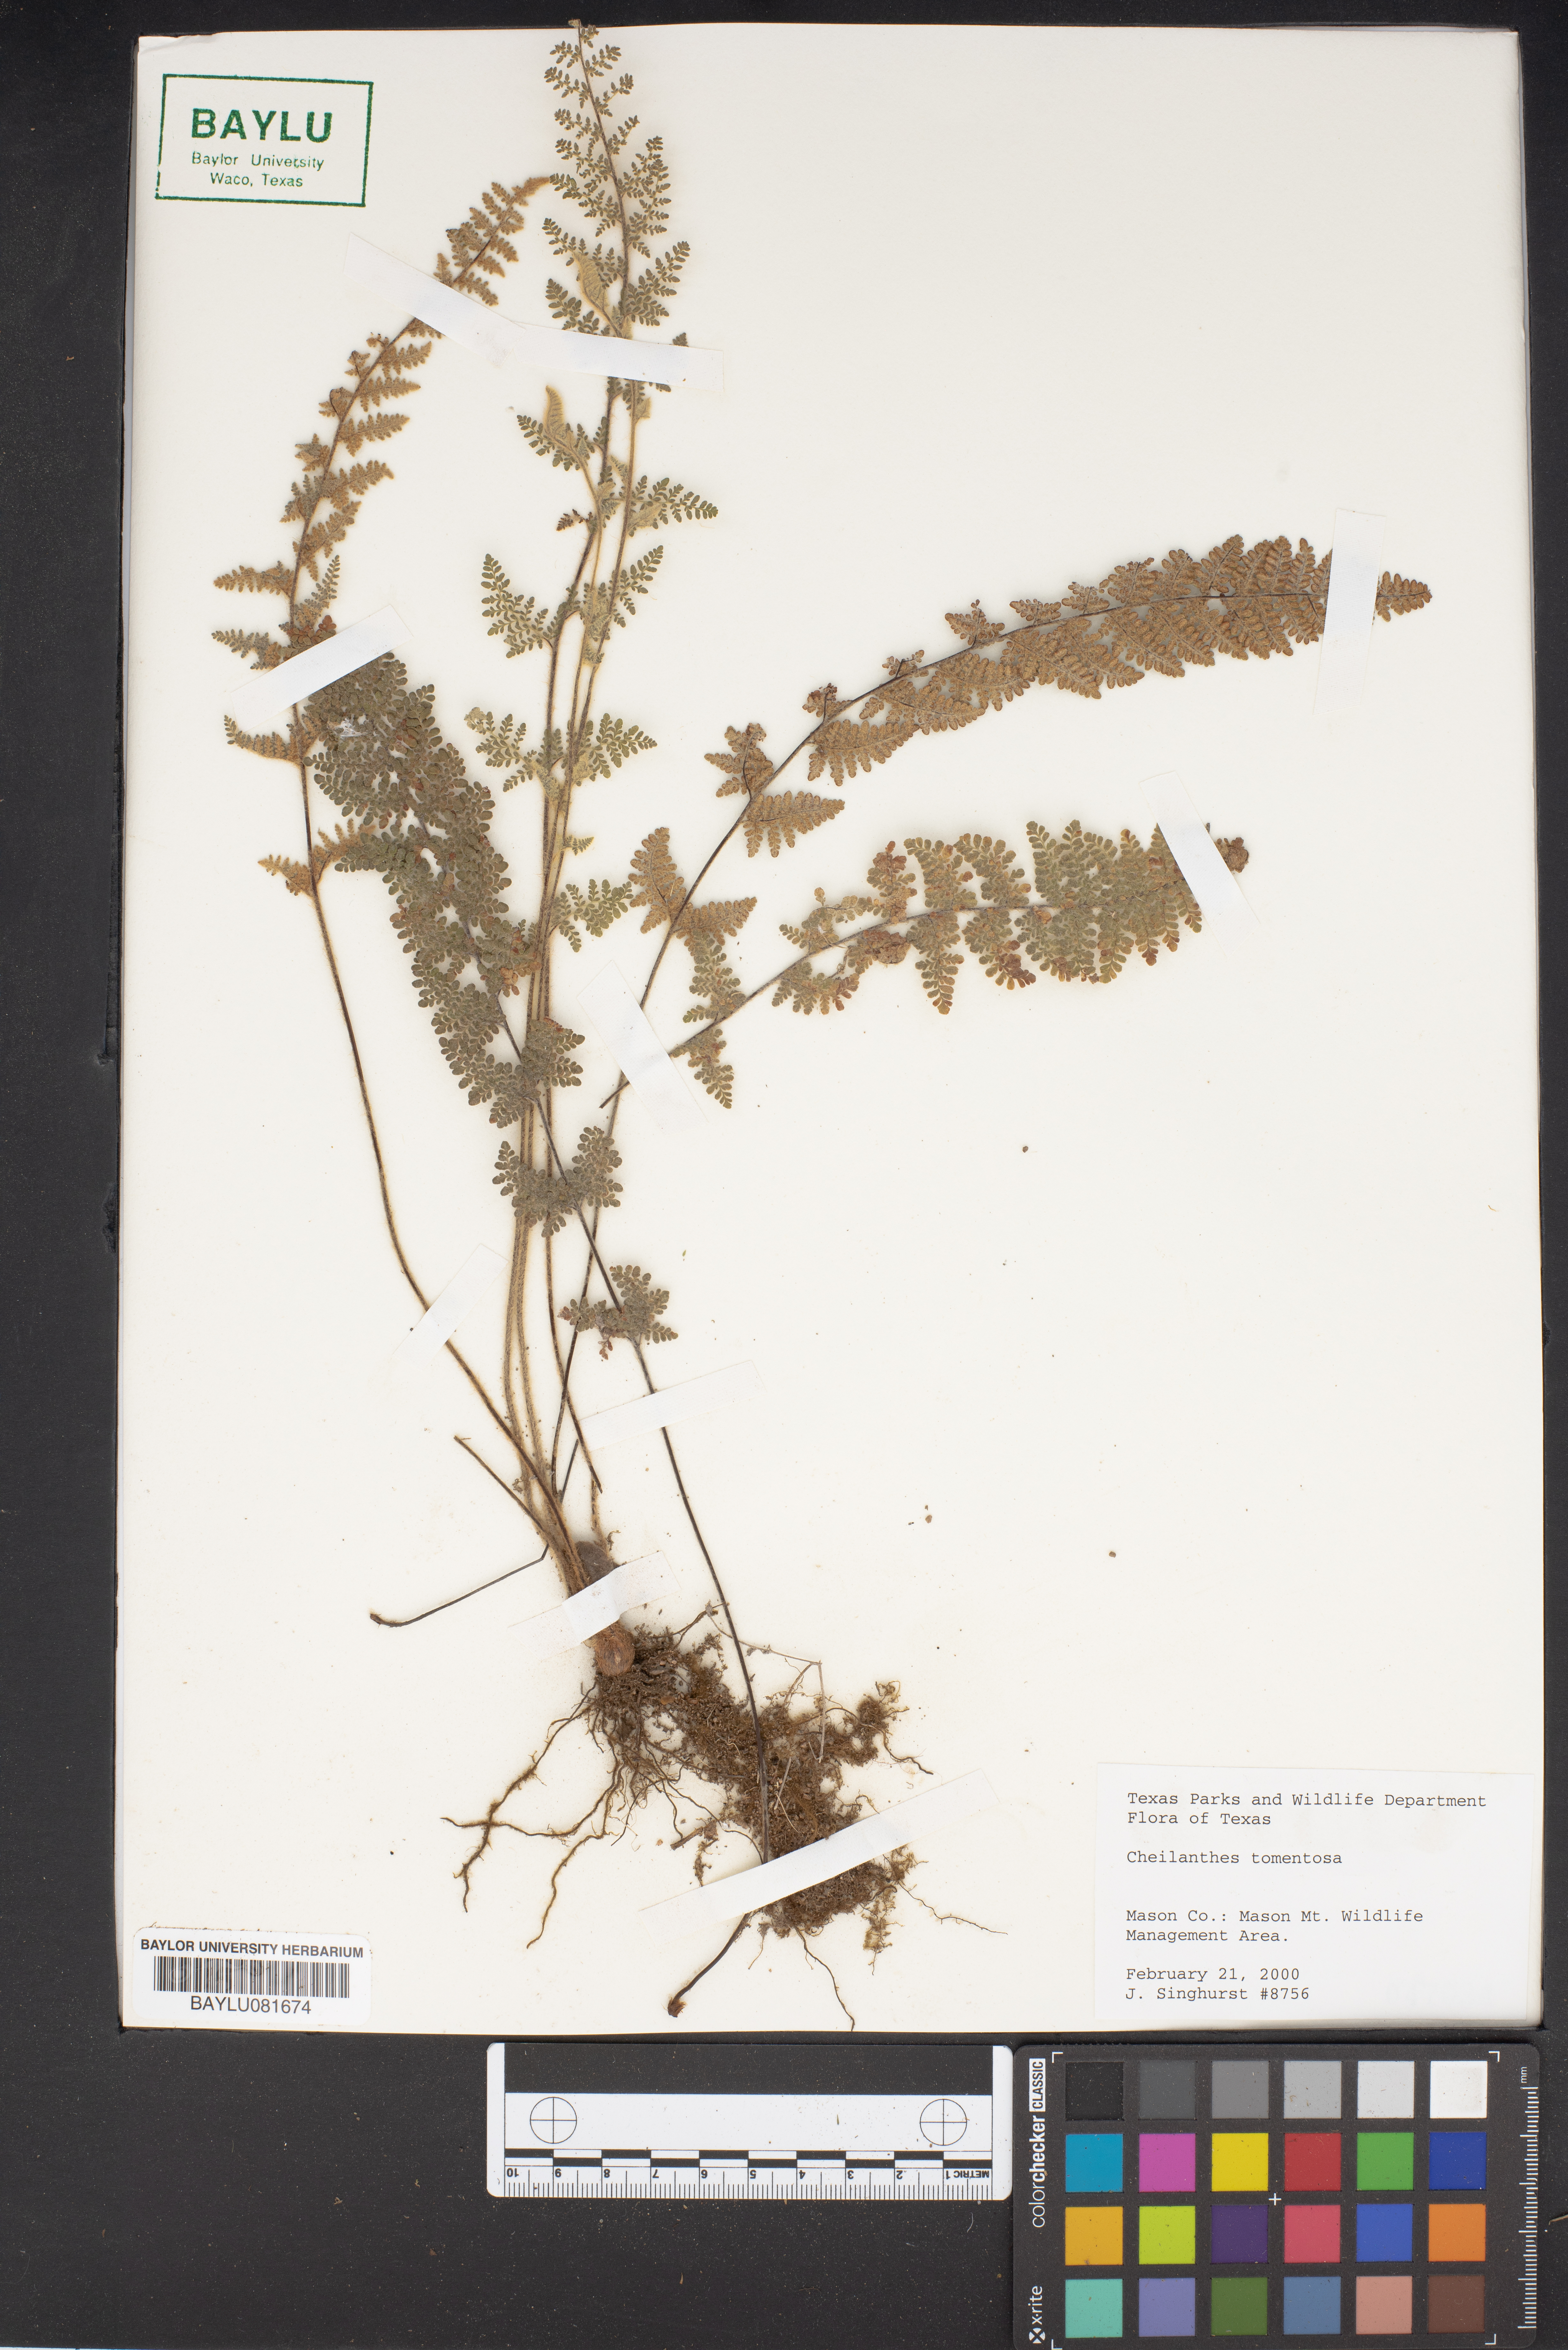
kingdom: Plantae
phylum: Tracheophyta
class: Polypodiopsida
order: Polypodiales
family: Pteridaceae
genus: Myriopteris
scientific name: Myriopteris tomentosa
